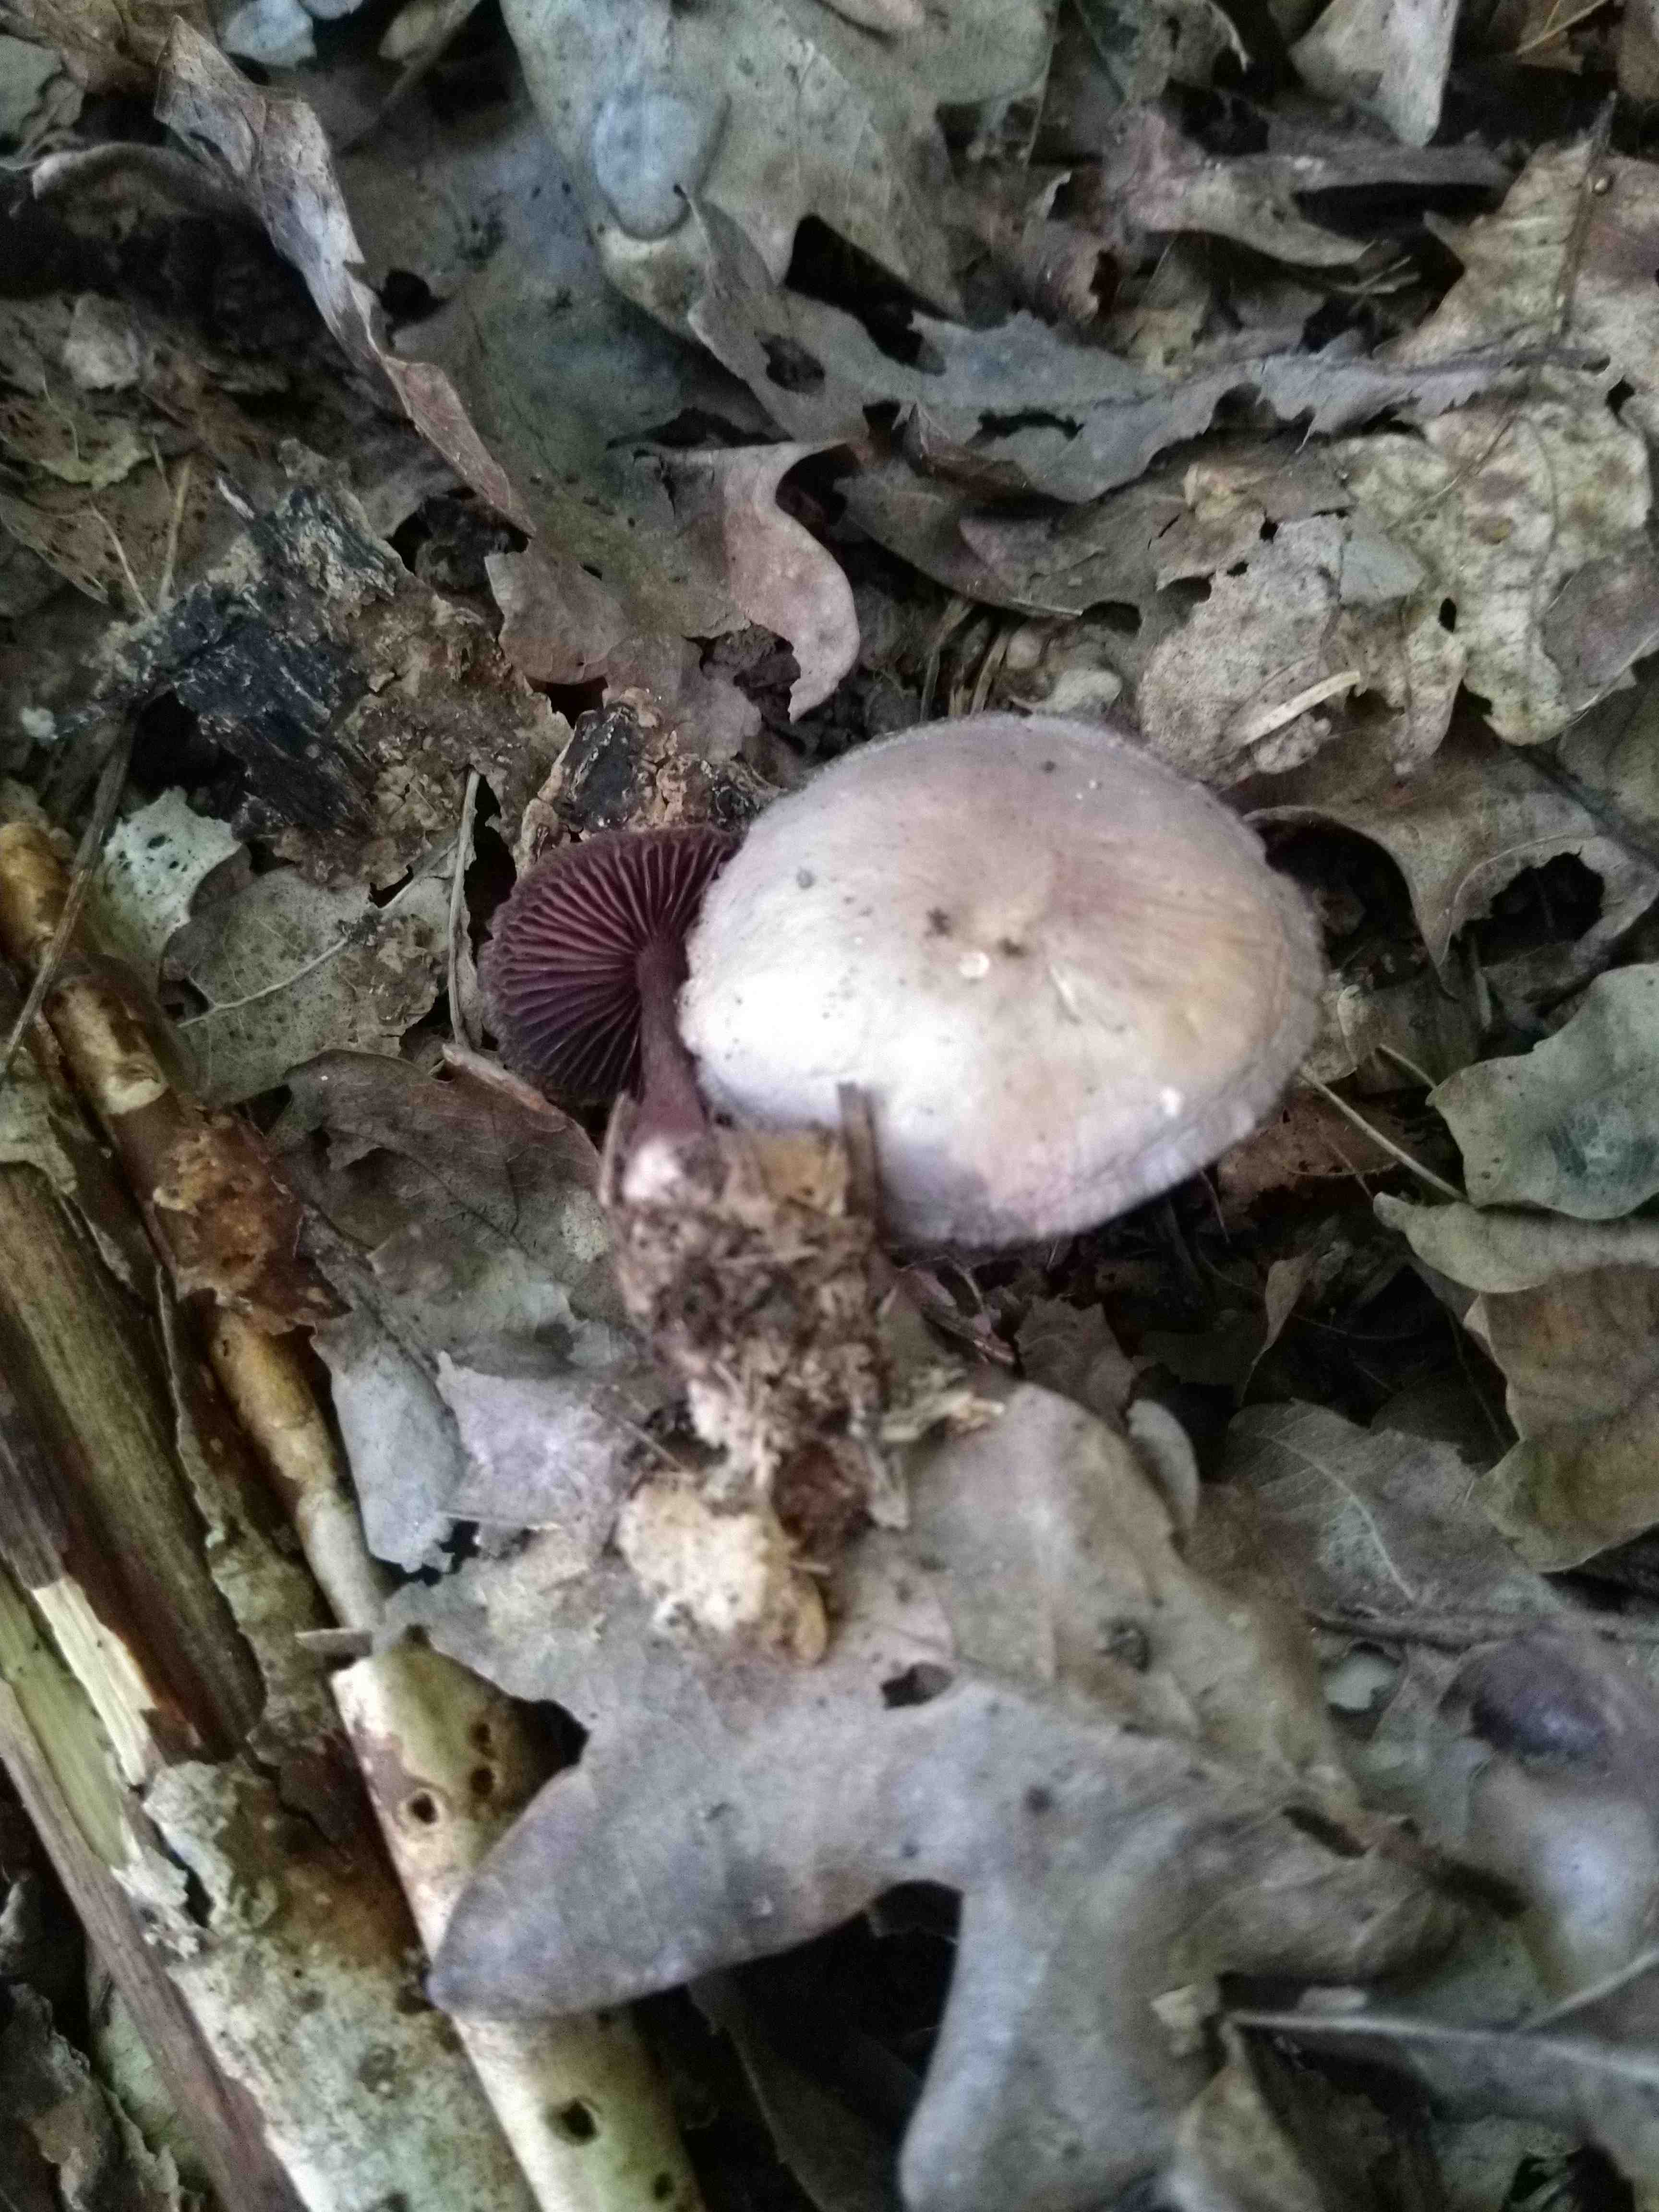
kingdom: Fungi
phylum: Basidiomycota
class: Agaricomycetes
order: Agaricales
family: Mycenaceae
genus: Mycena
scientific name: Mycena pelianthina
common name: mørkbladet huesvamp
